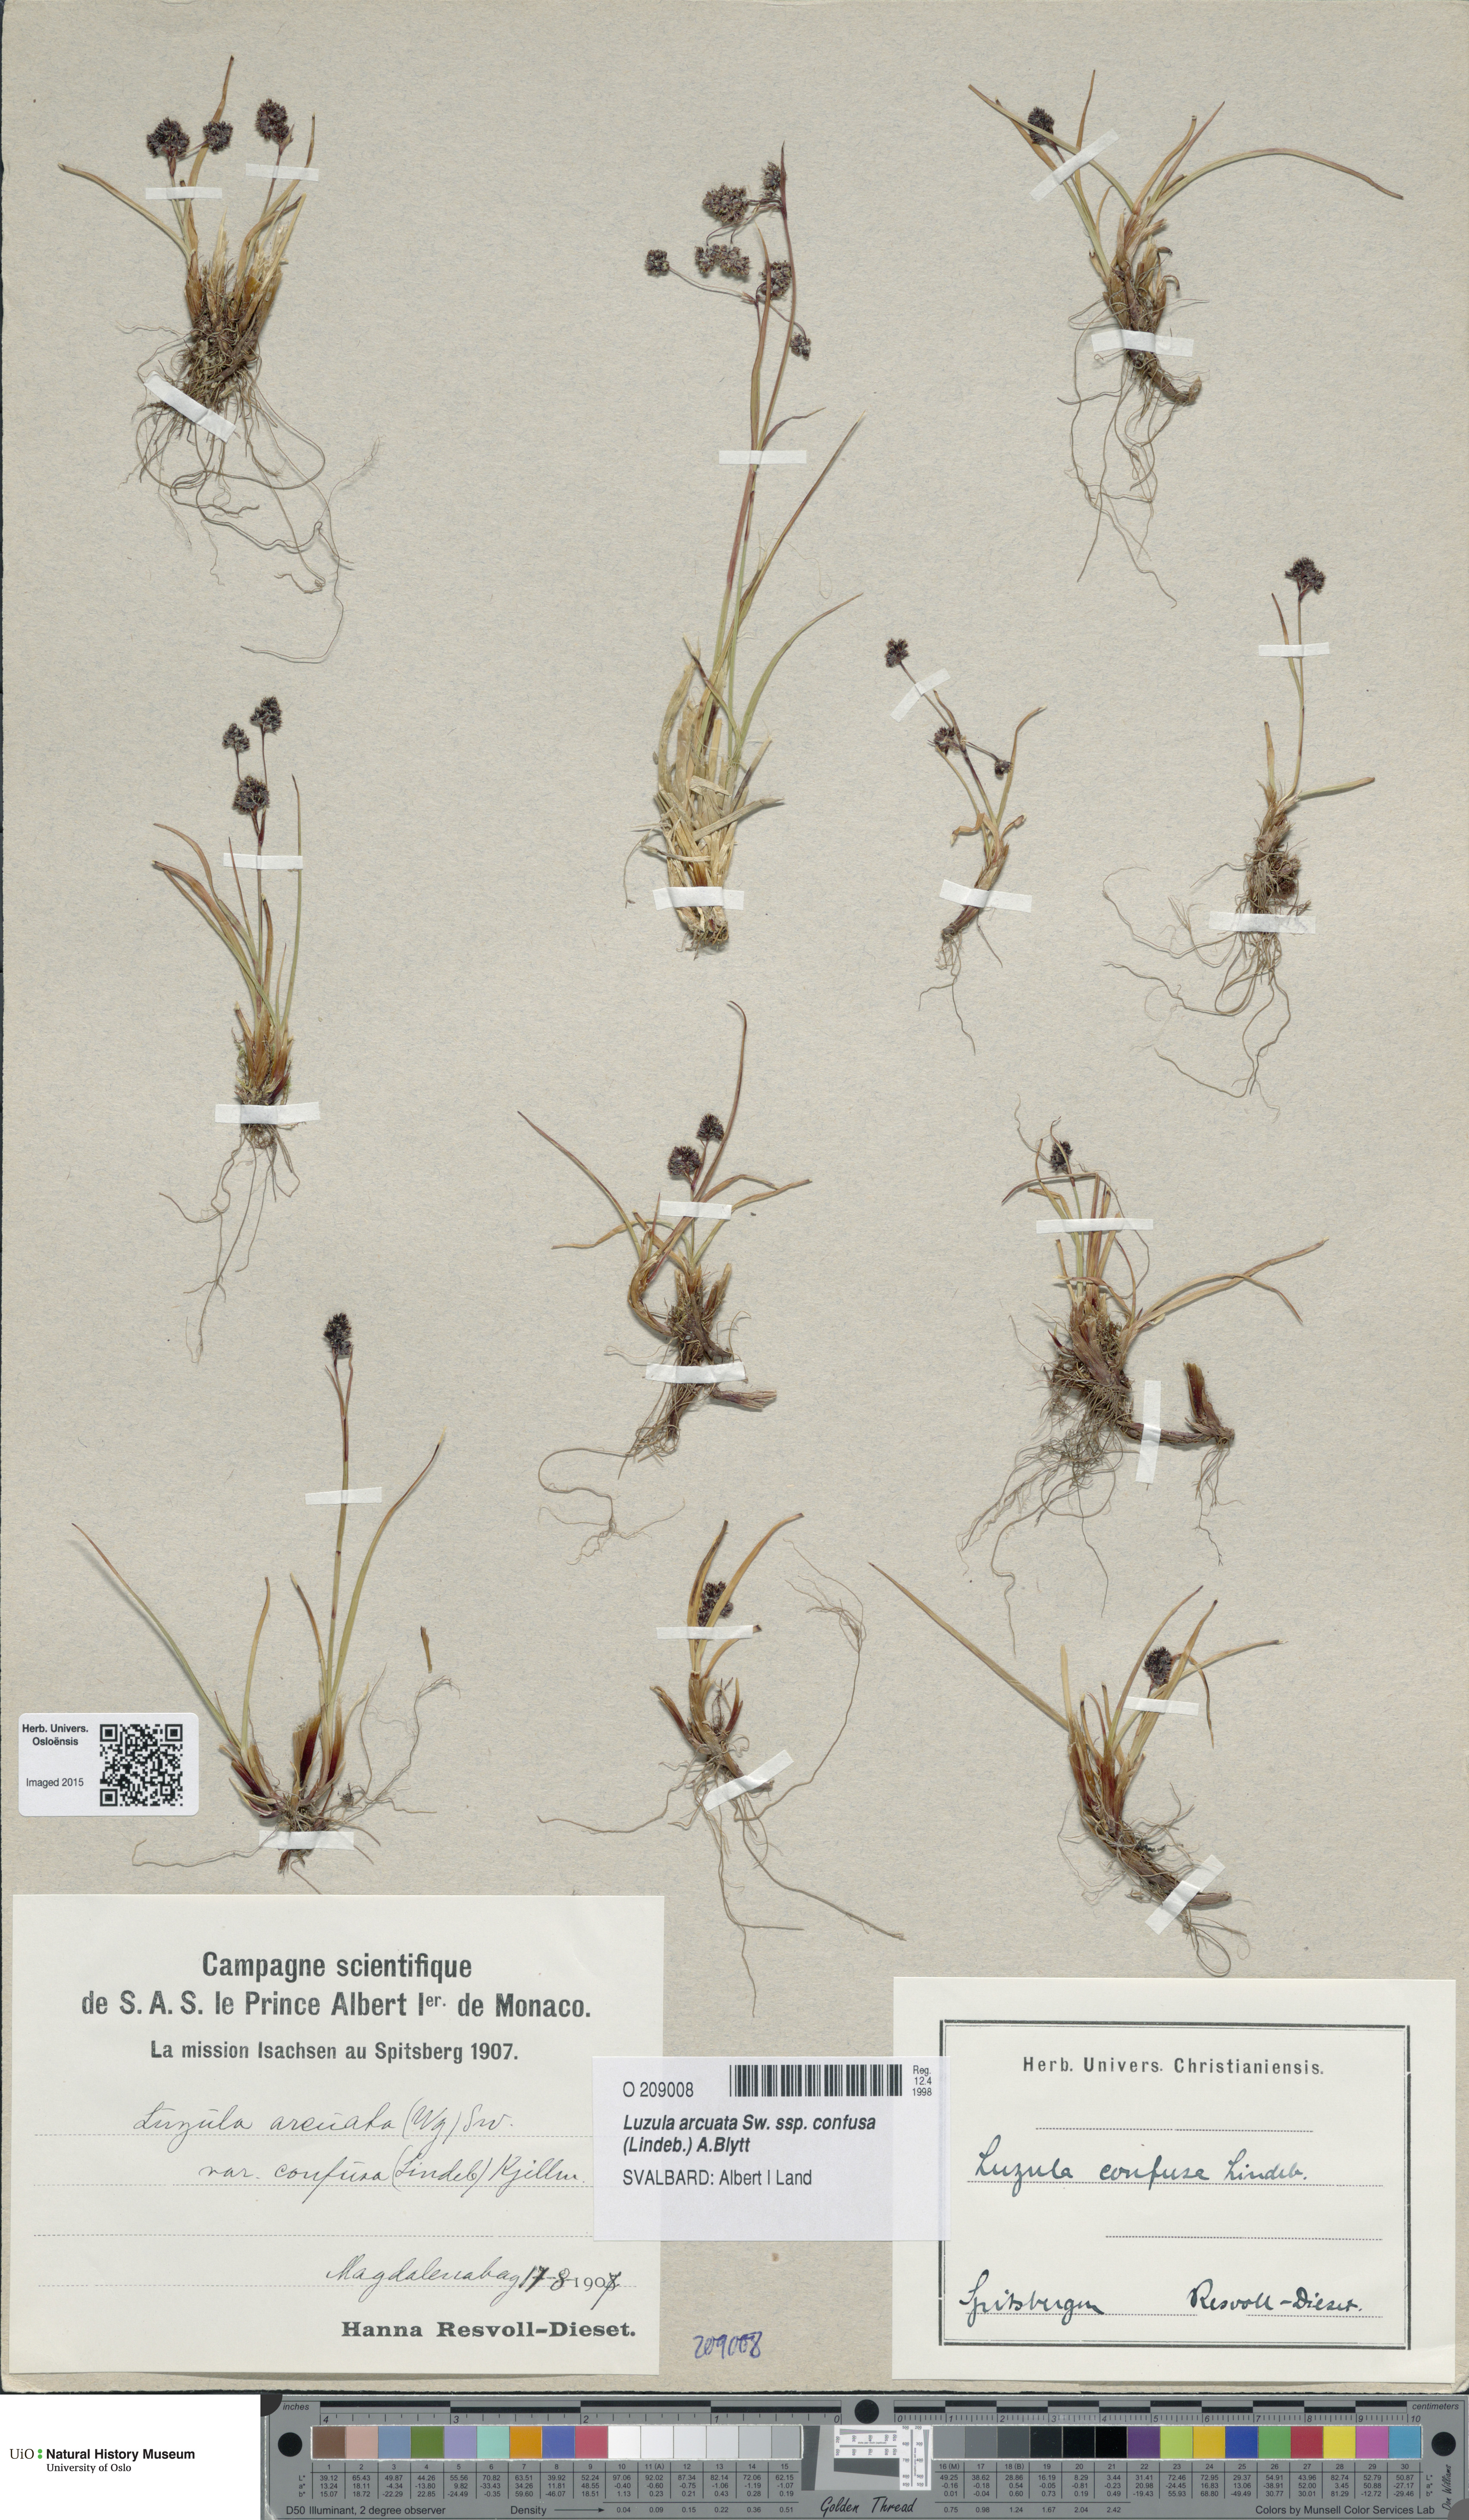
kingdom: Plantae
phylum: Tracheophyta
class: Liliopsida
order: Poales
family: Juncaceae
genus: Luzula
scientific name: Luzula confusa
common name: Northern wood rush
